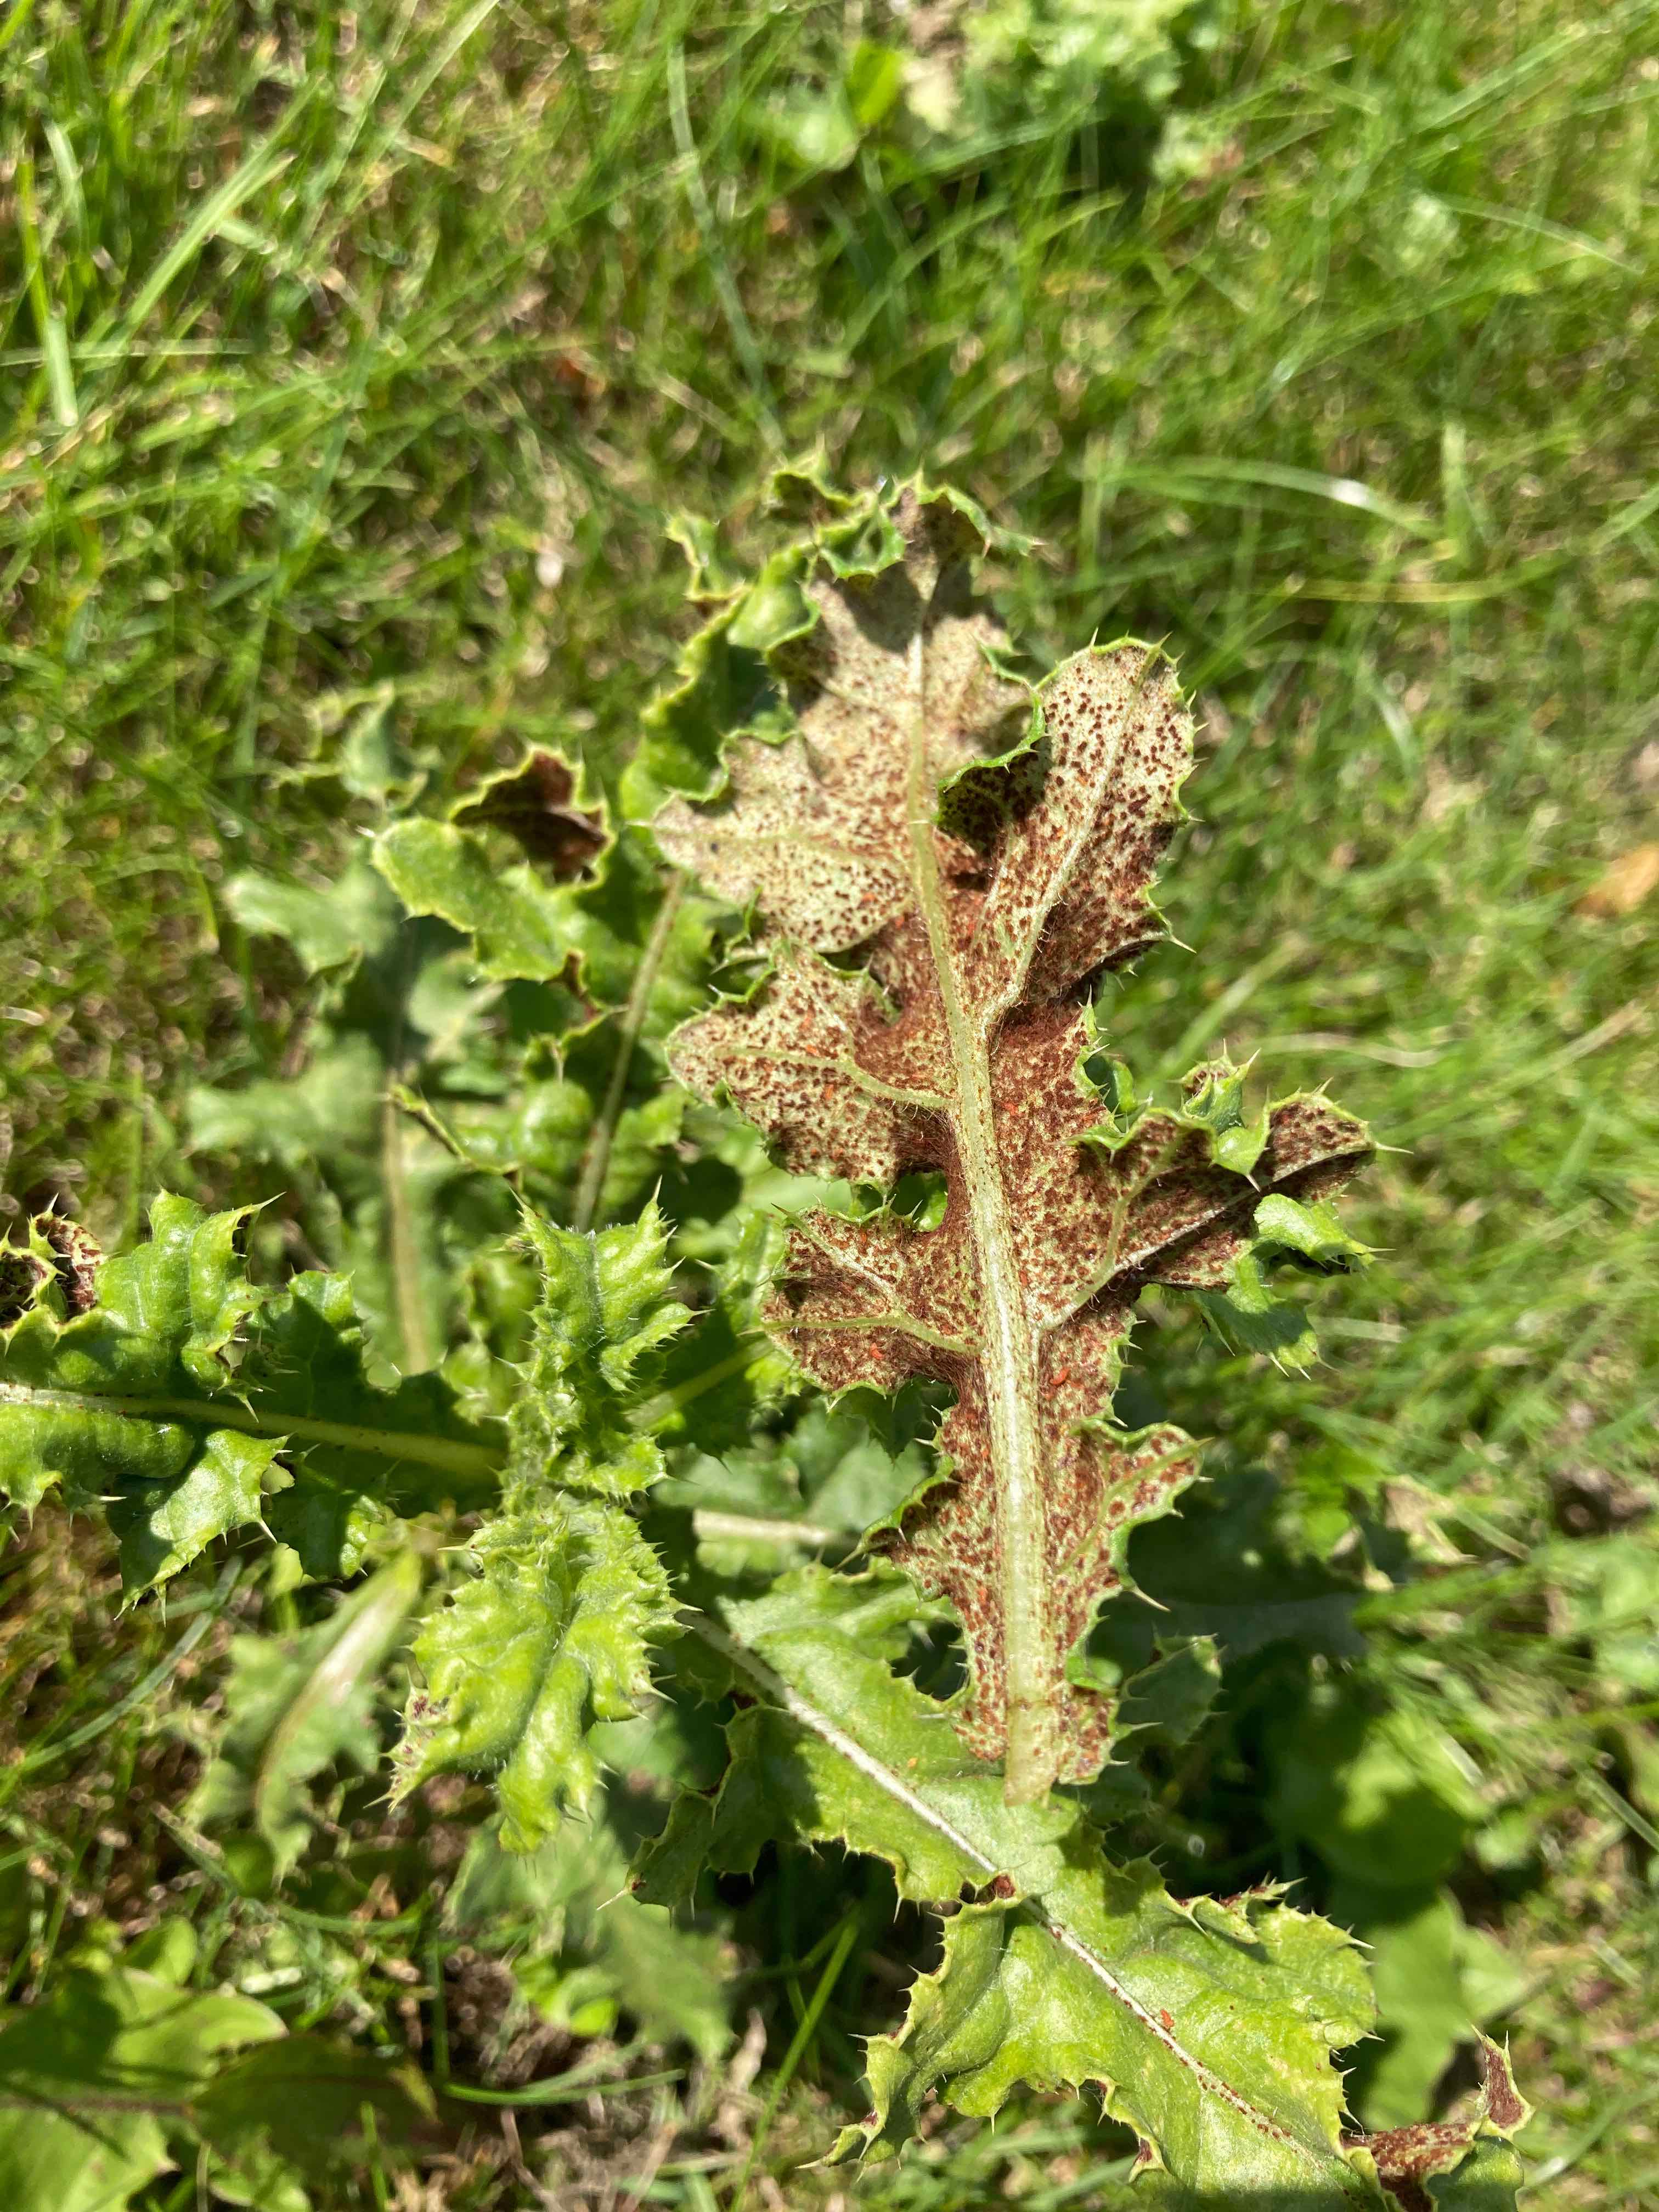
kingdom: Fungi
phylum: Basidiomycota
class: Pucciniomycetes
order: Pucciniales
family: Pucciniaceae
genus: Puccinia
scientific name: Puccinia suaveolens
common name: tidsel-tvecellerust
